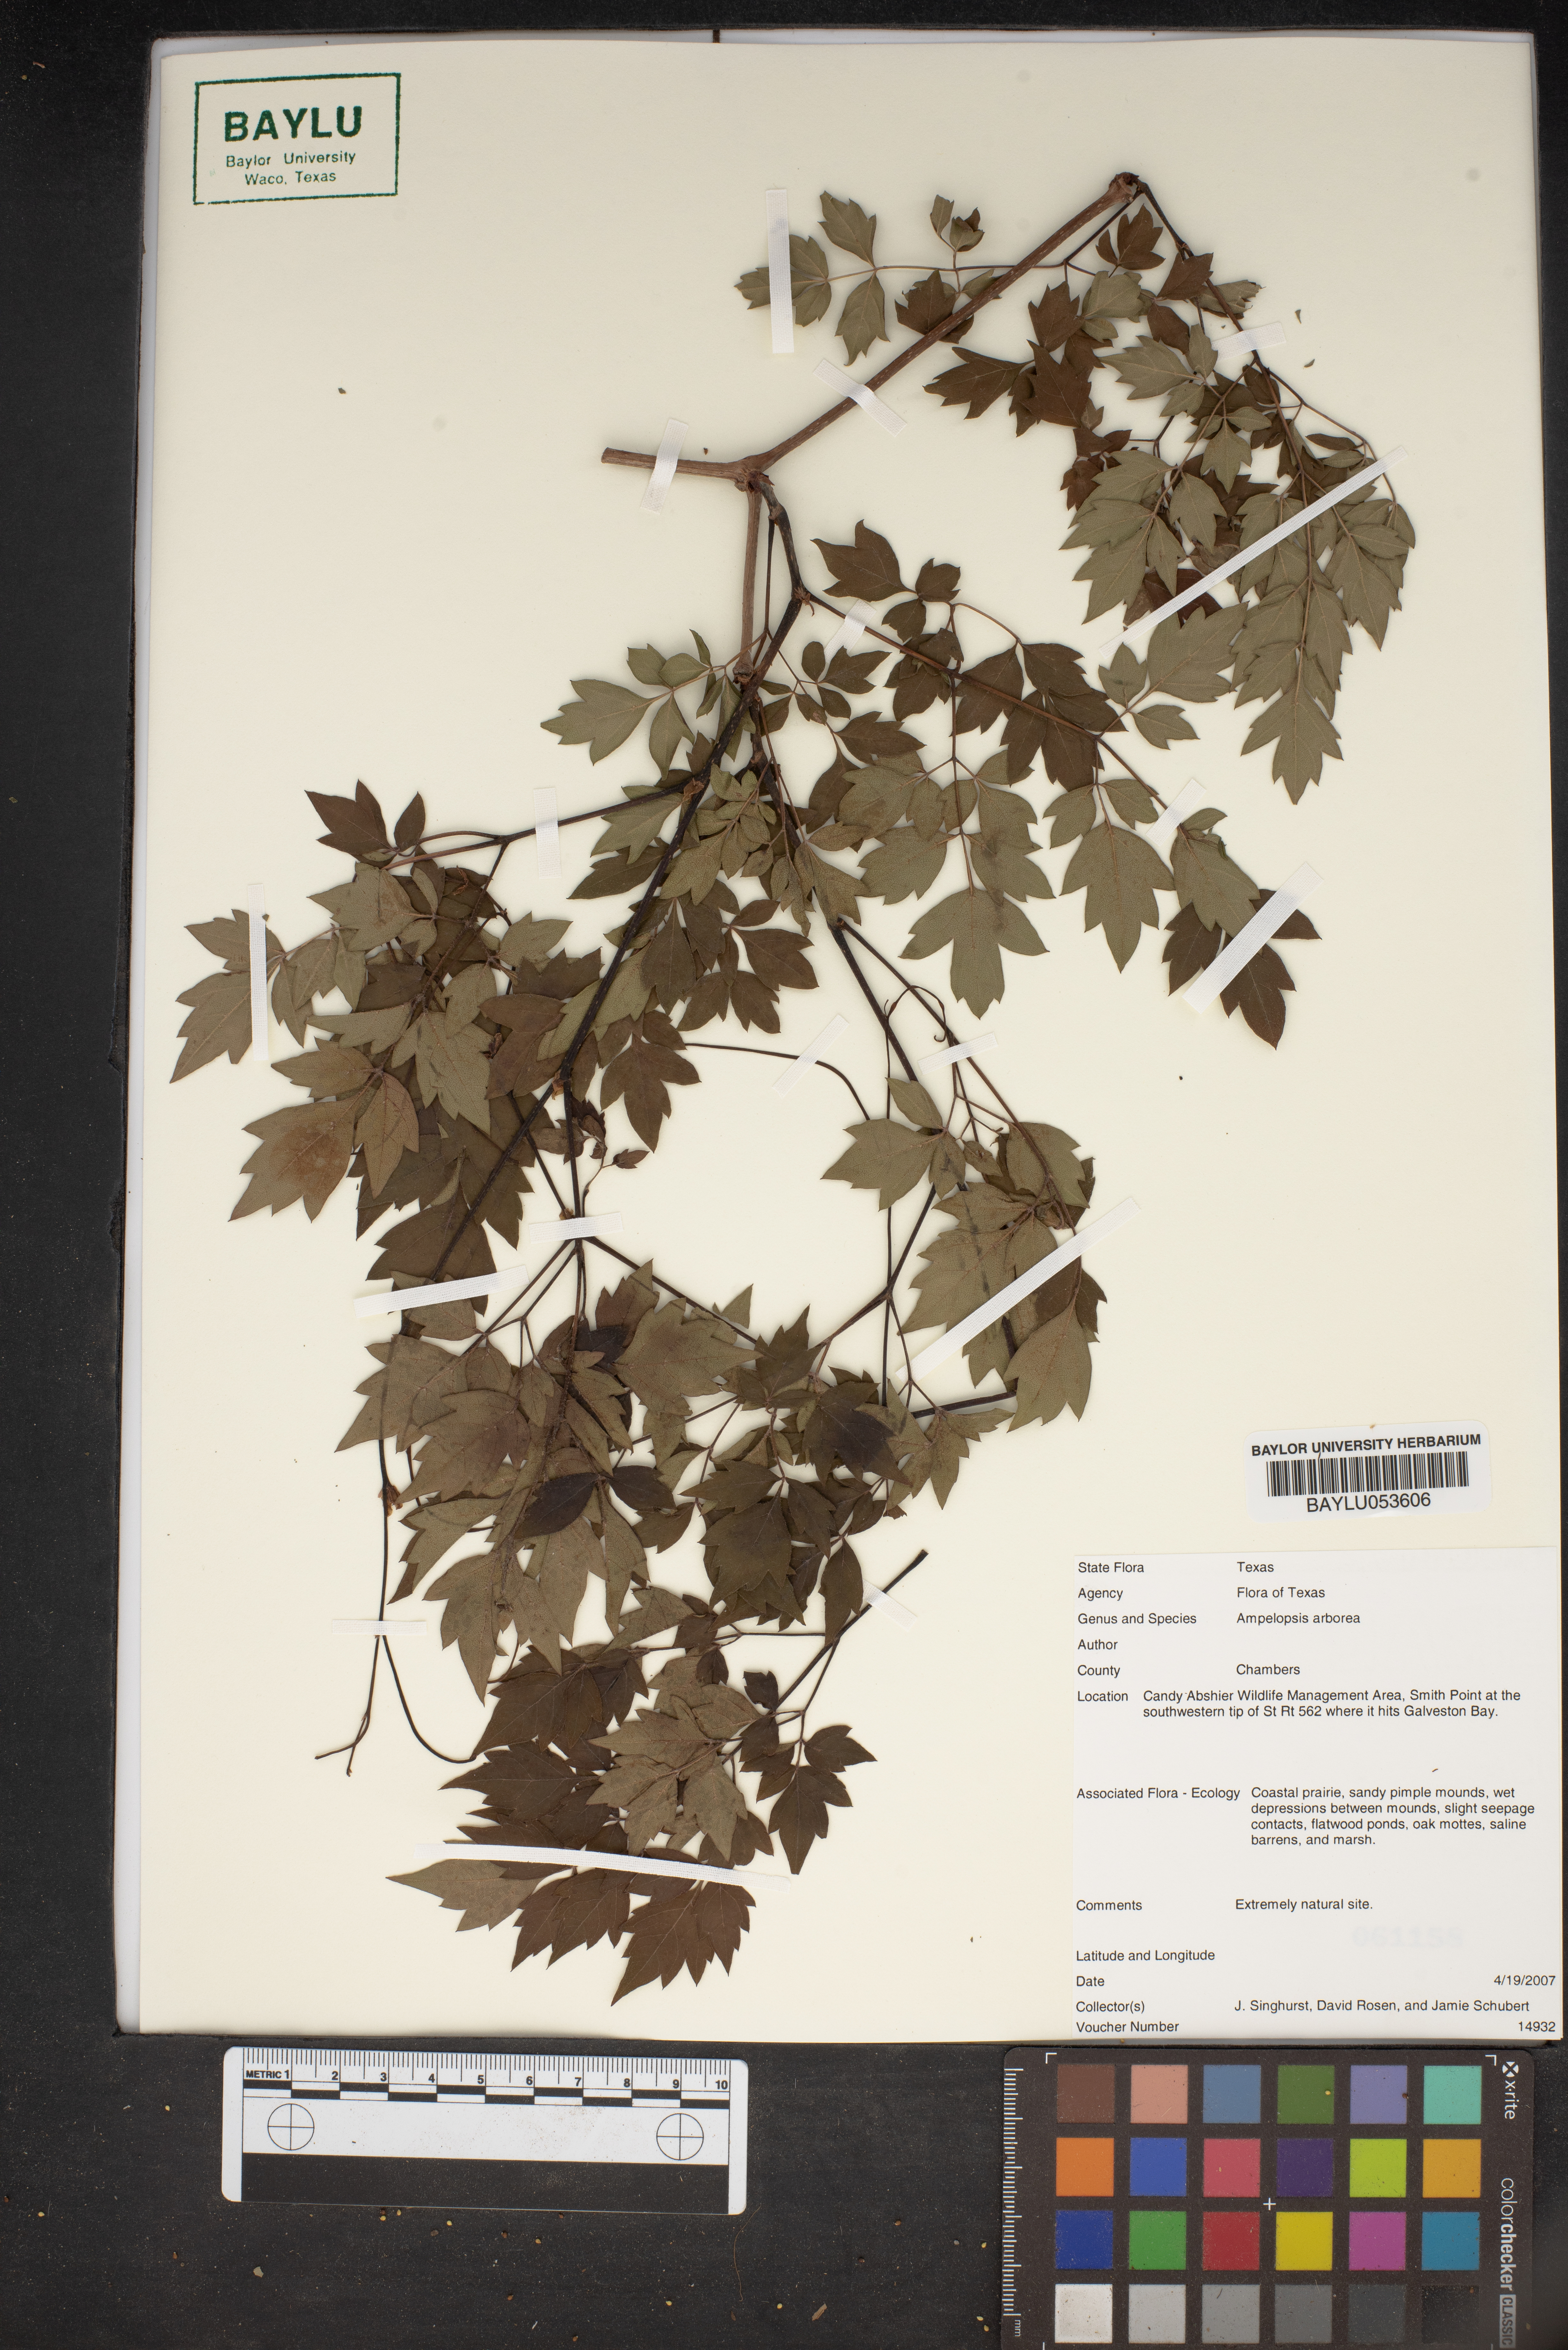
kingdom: Plantae
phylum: Tracheophyta
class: Magnoliopsida
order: Vitales
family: Vitaceae
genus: Nekemias
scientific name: Nekemias arborea
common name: Peppervine
